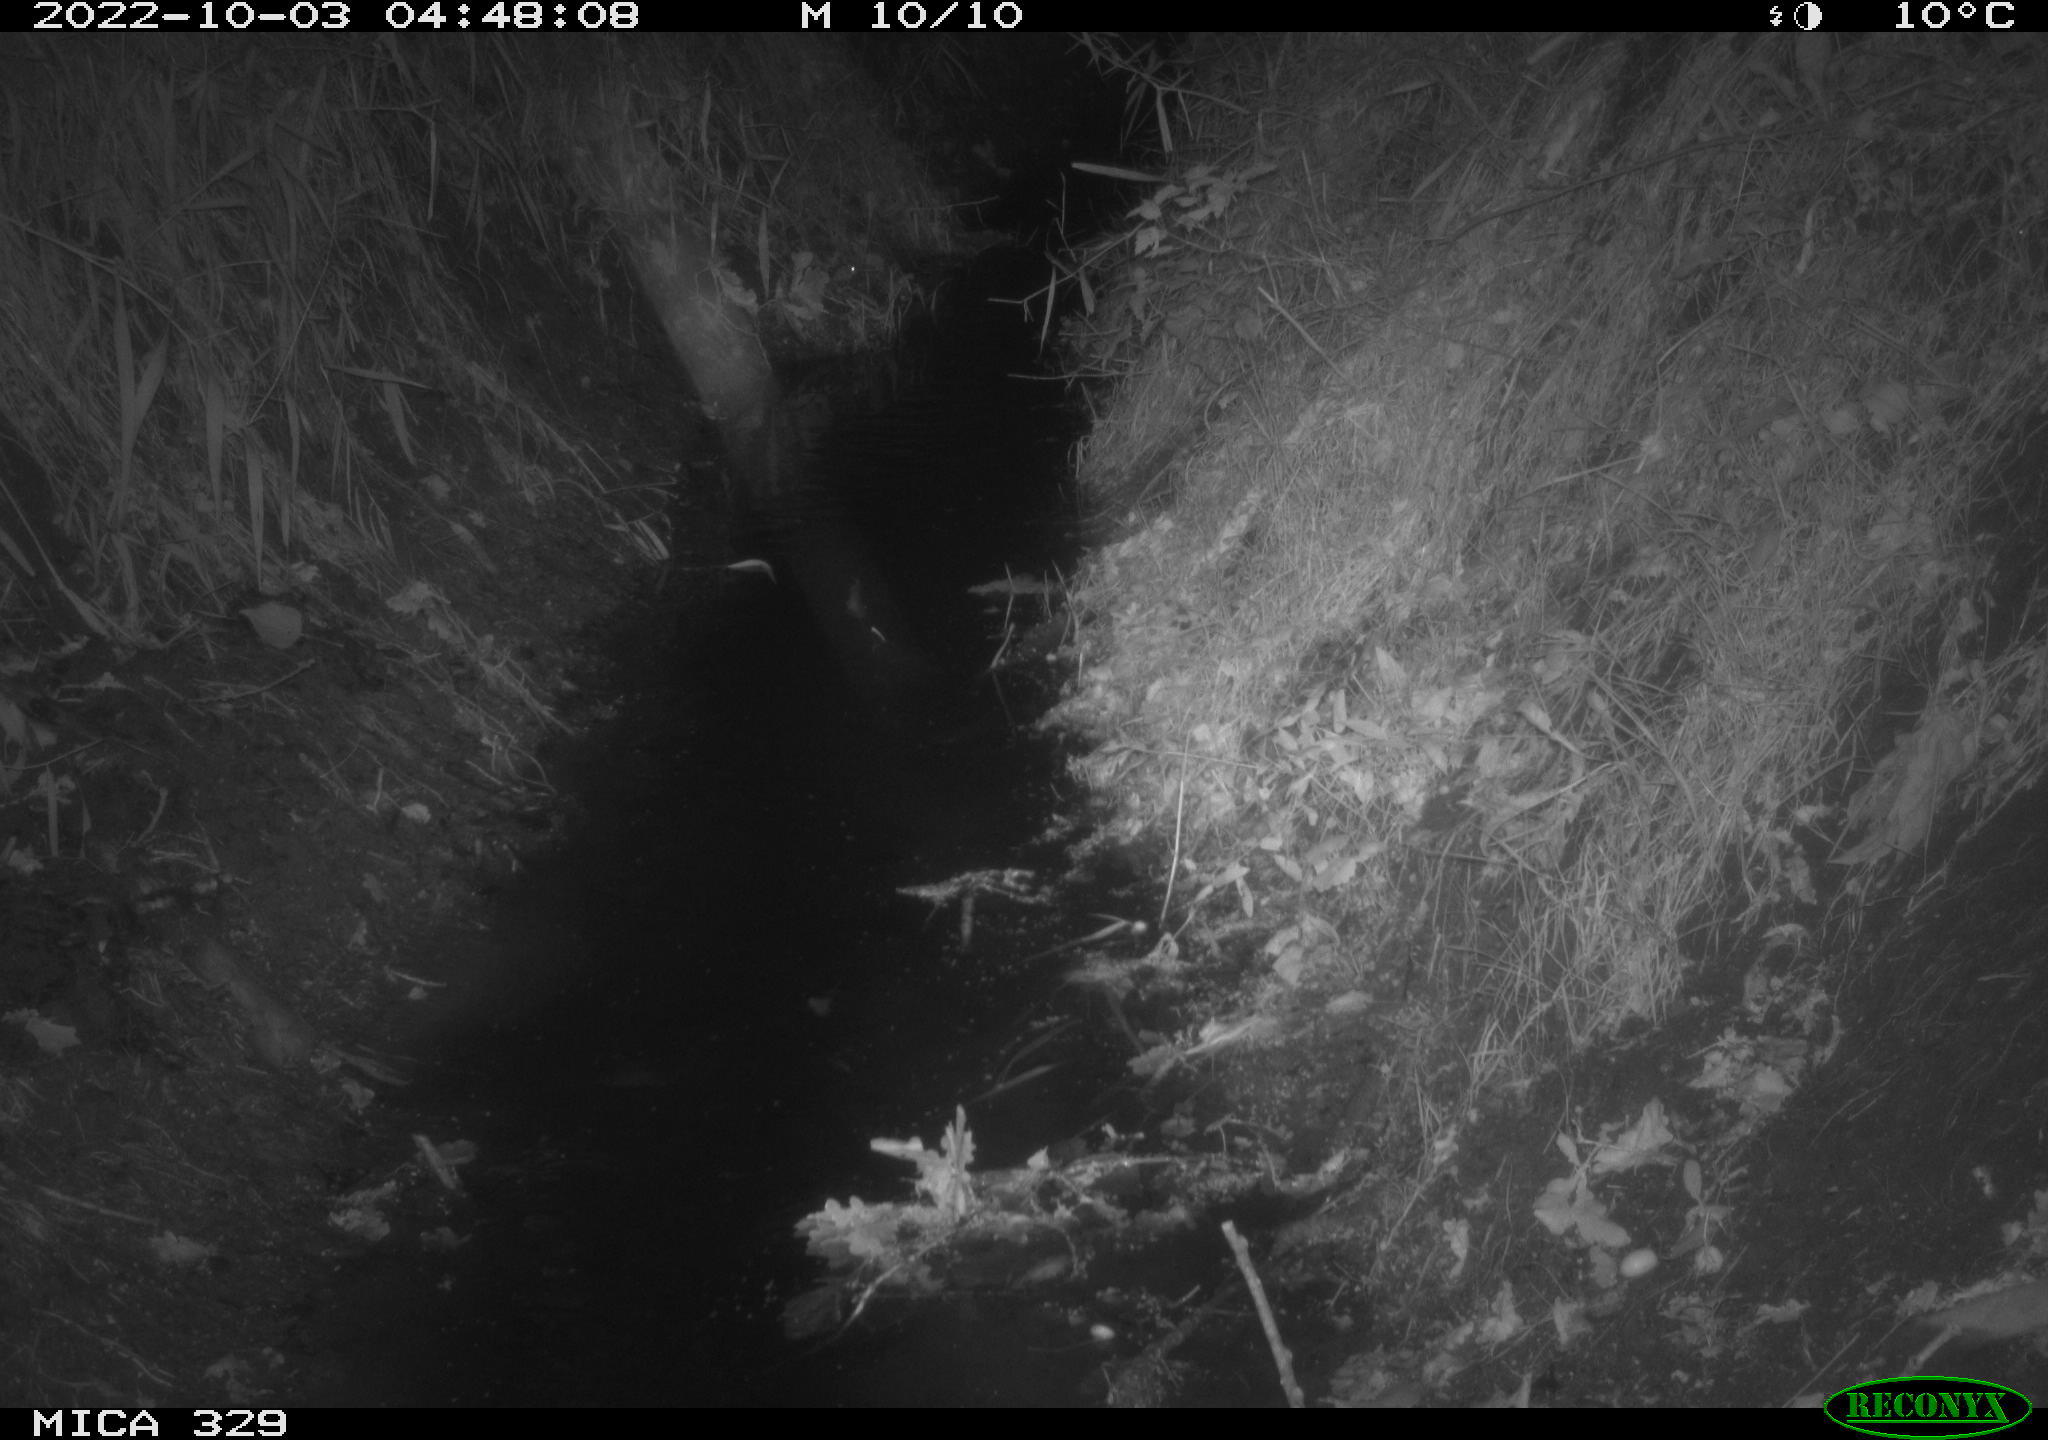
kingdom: Animalia
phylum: Chordata
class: Mammalia
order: Rodentia
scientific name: Rodentia
